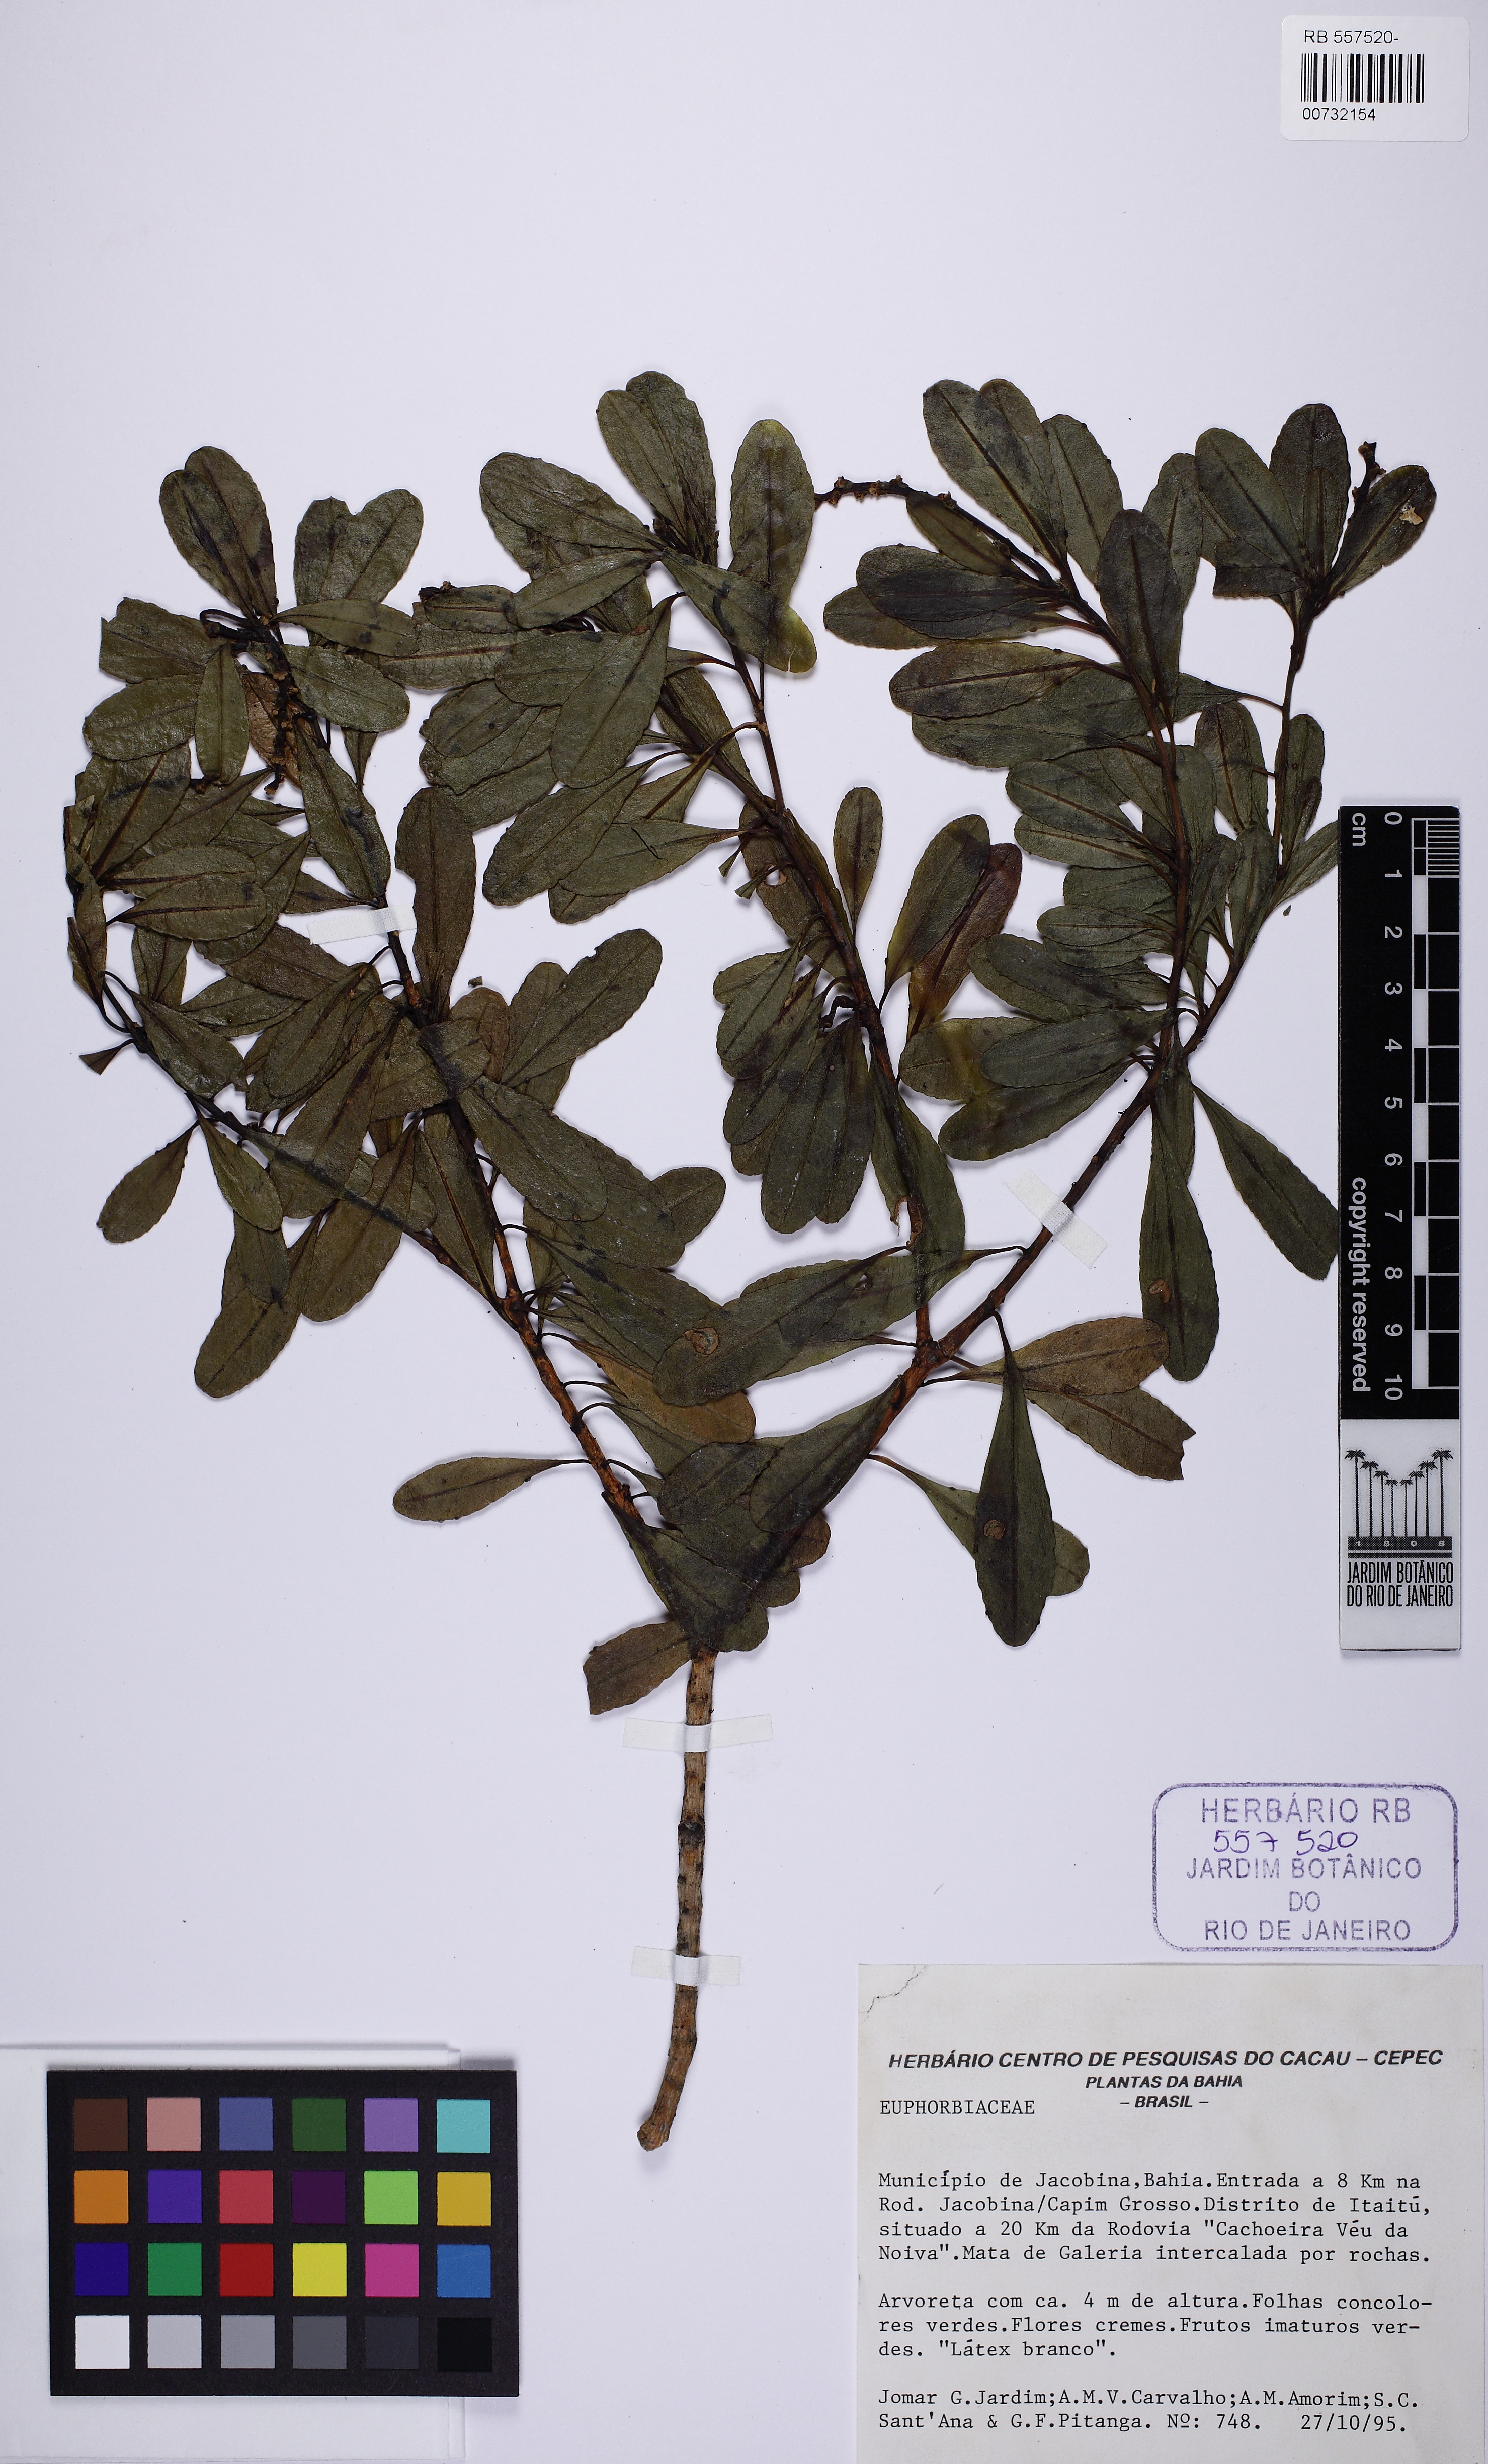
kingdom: Plantae
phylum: Tracheophyta
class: Magnoliopsida
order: Malpighiales
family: Euphorbiaceae
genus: Stillingia
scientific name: Stillingia uleana
